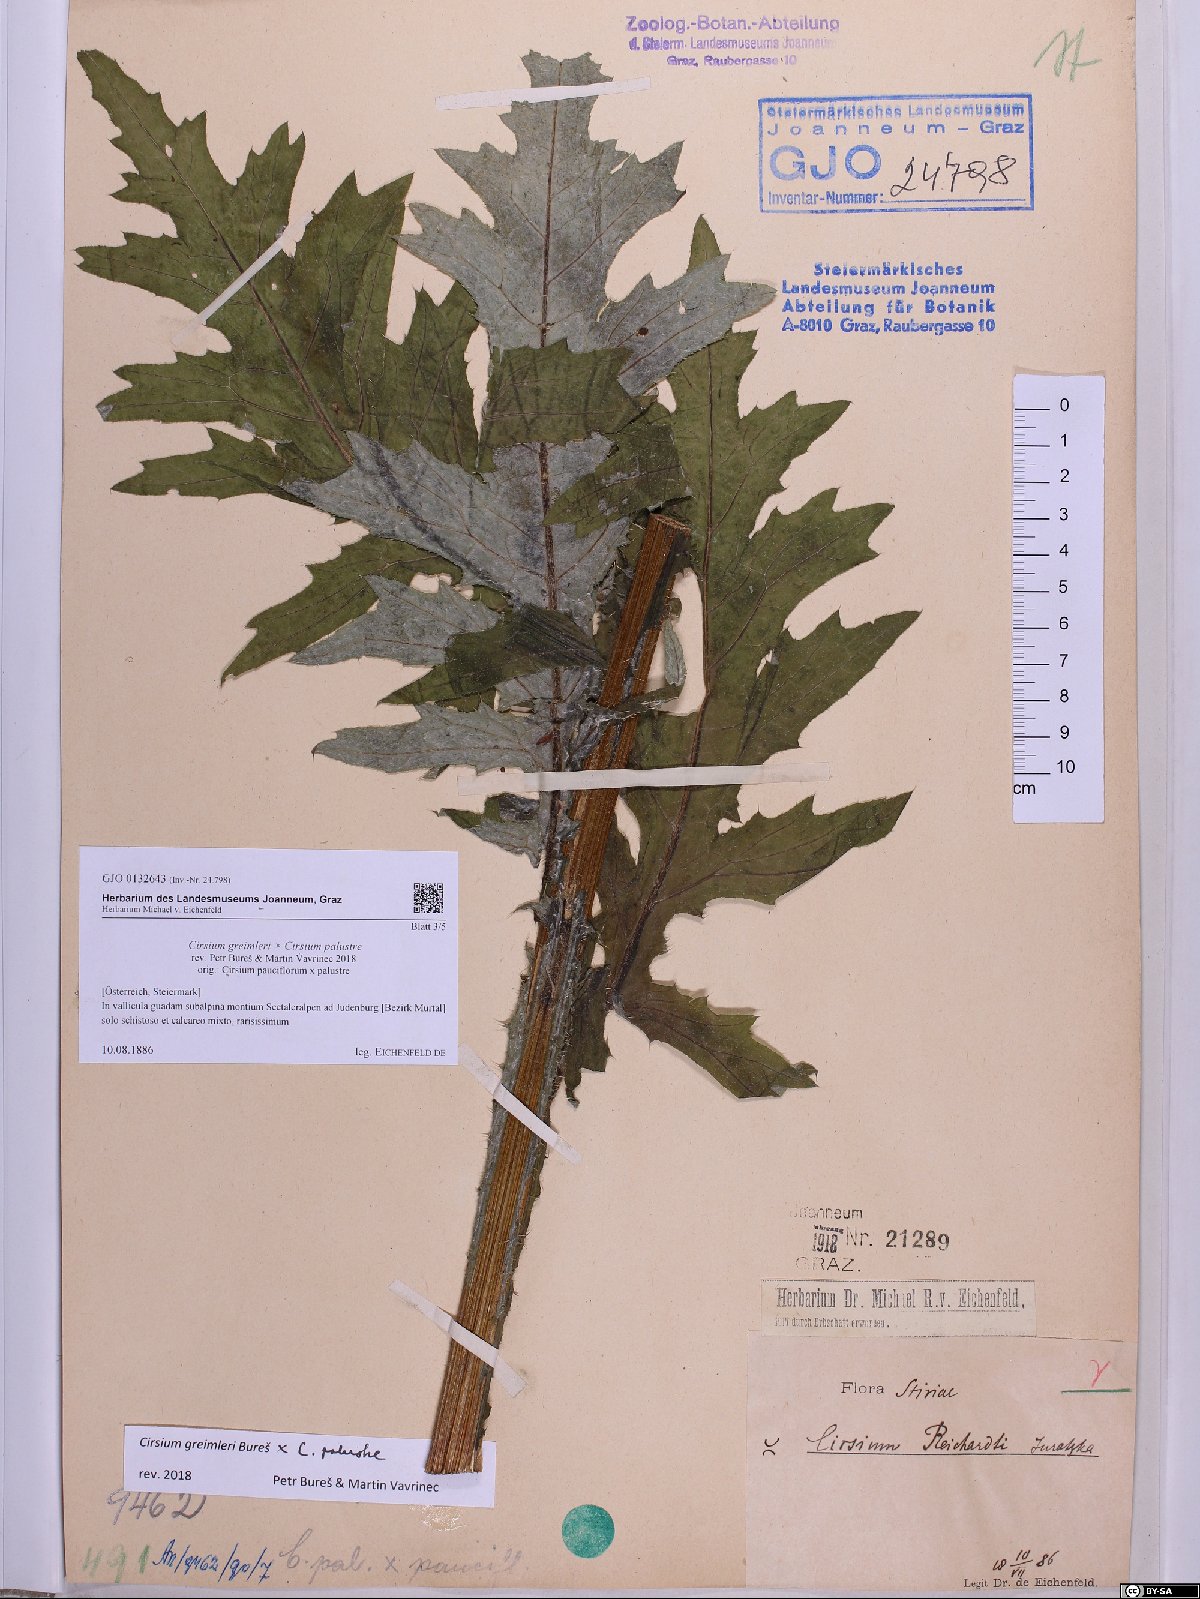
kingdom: Plantae
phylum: Tracheophyta
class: Magnoliopsida
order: Asterales
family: Asteraceae
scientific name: Asteraceae
